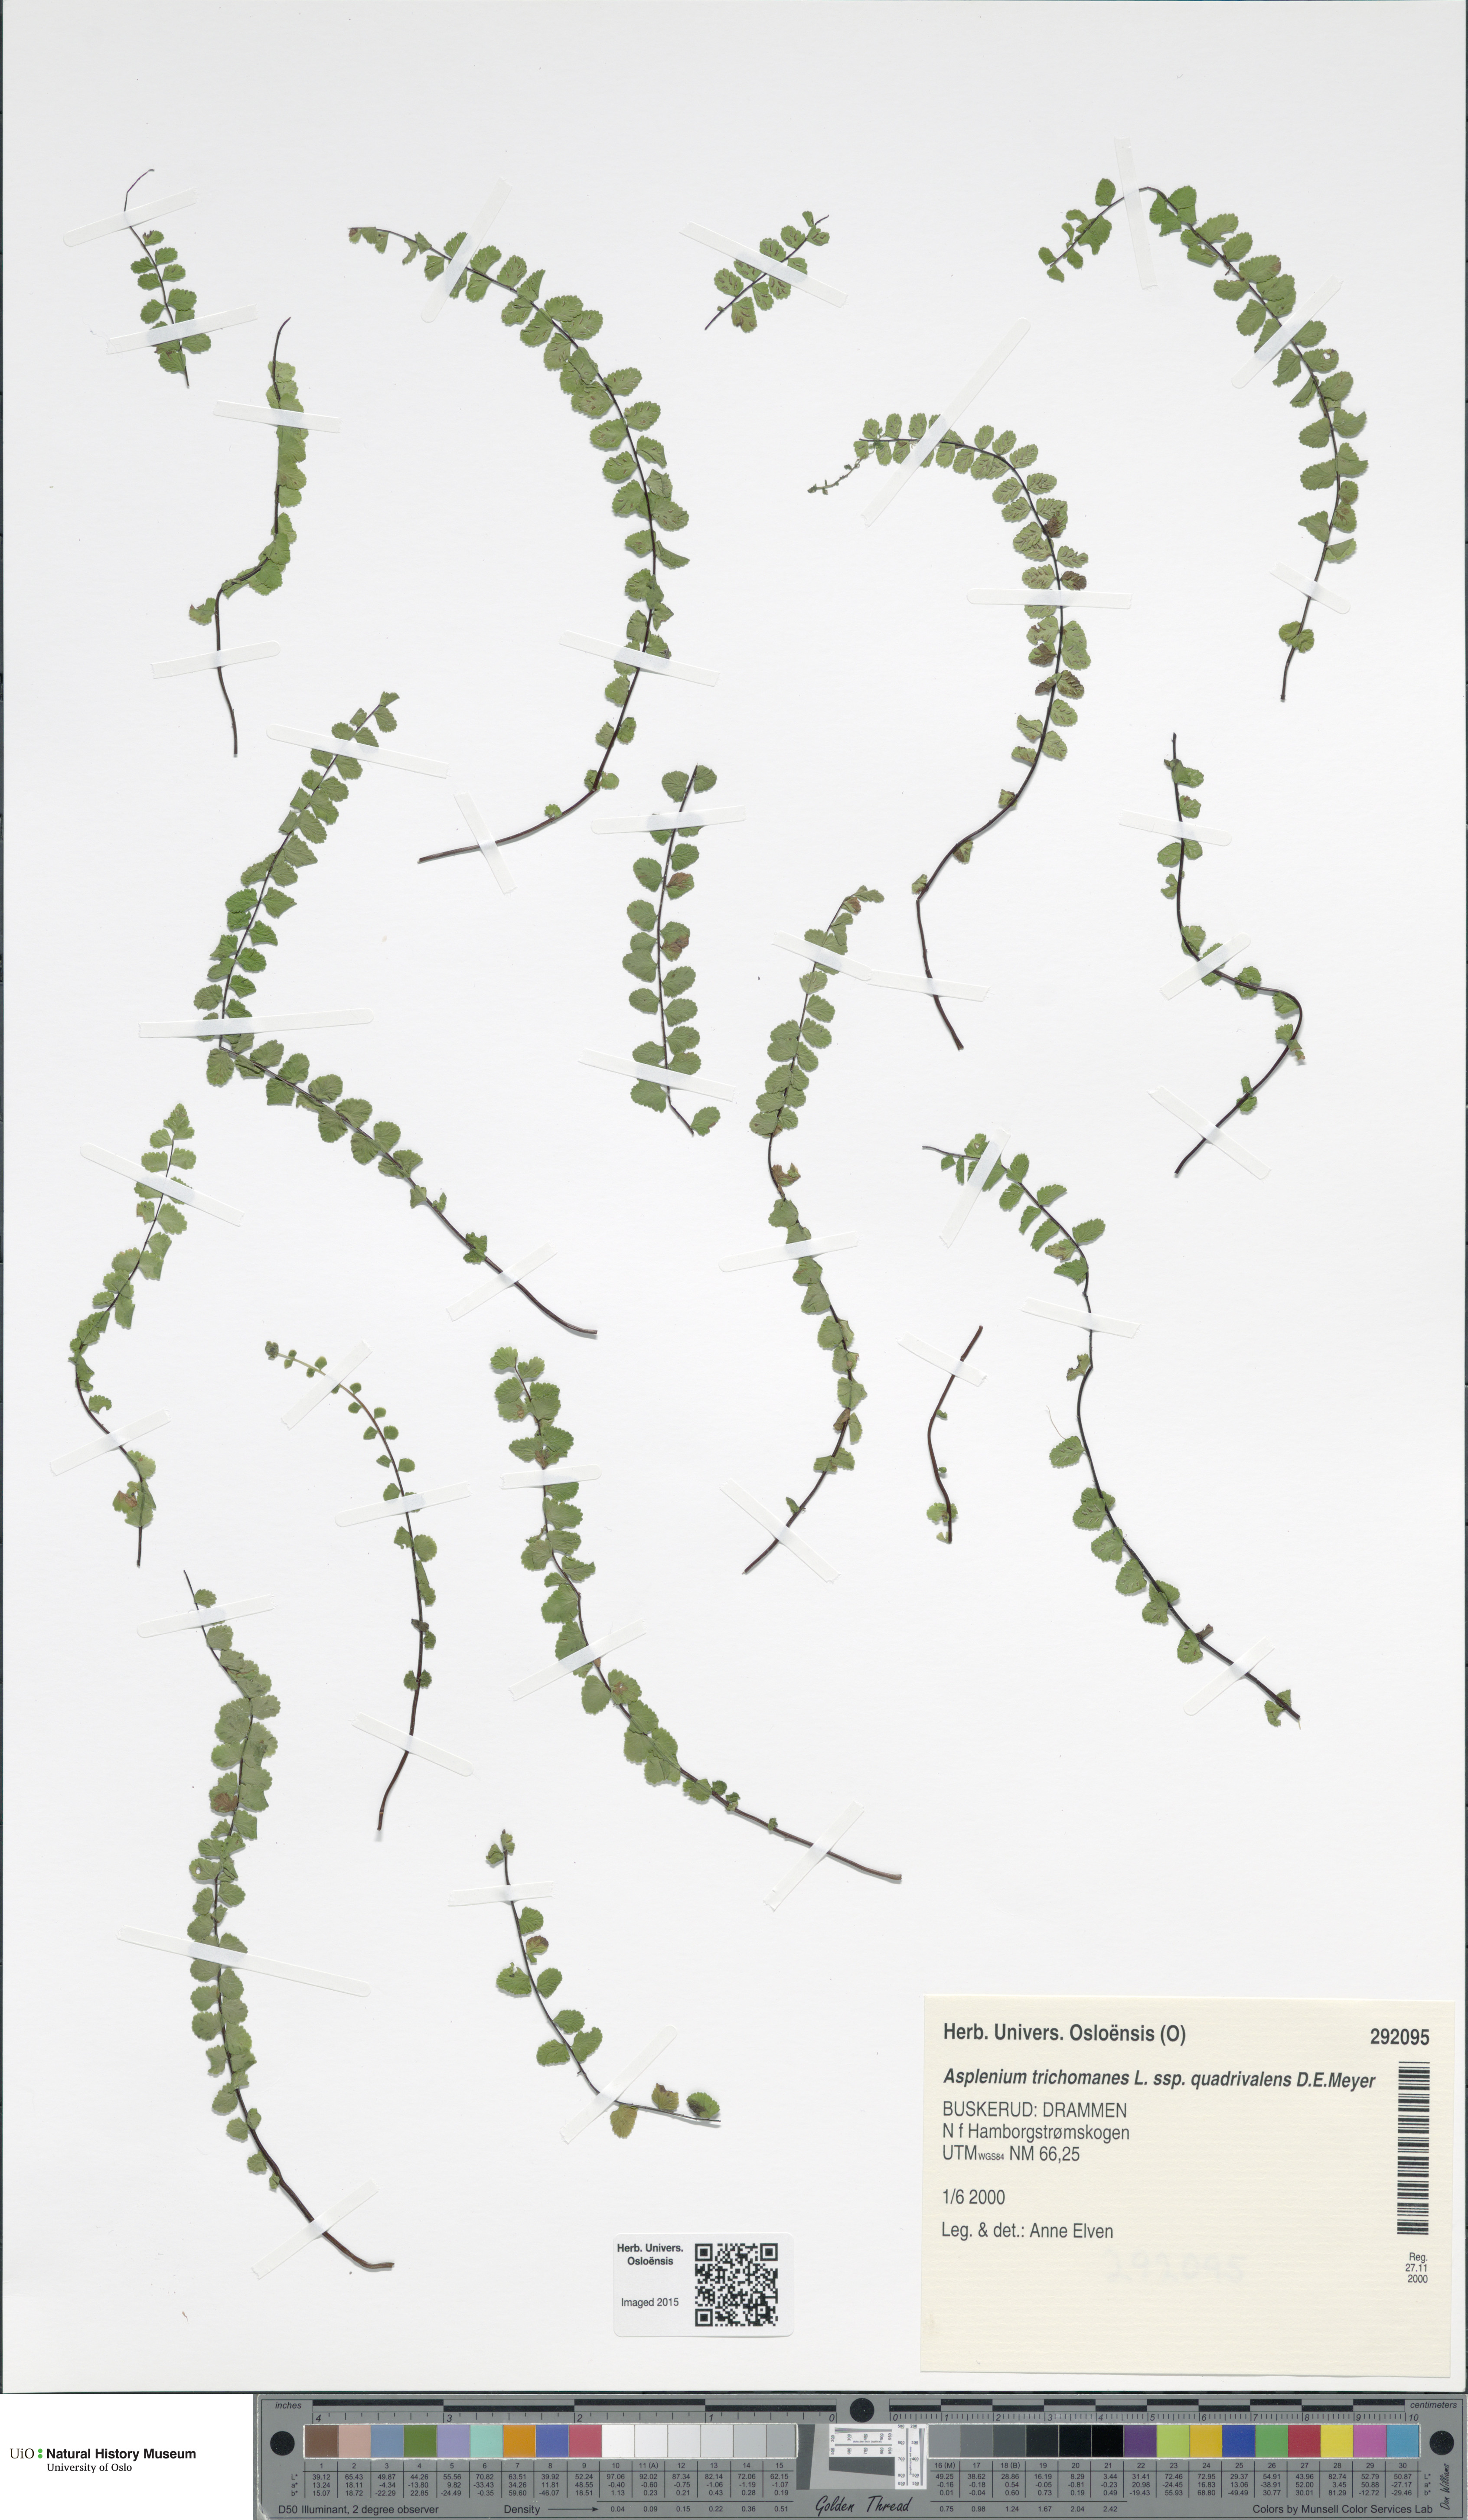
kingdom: Plantae
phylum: Tracheophyta
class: Polypodiopsida
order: Polypodiales
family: Aspleniaceae
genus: Asplenium
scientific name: Asplenium quadrivalens
